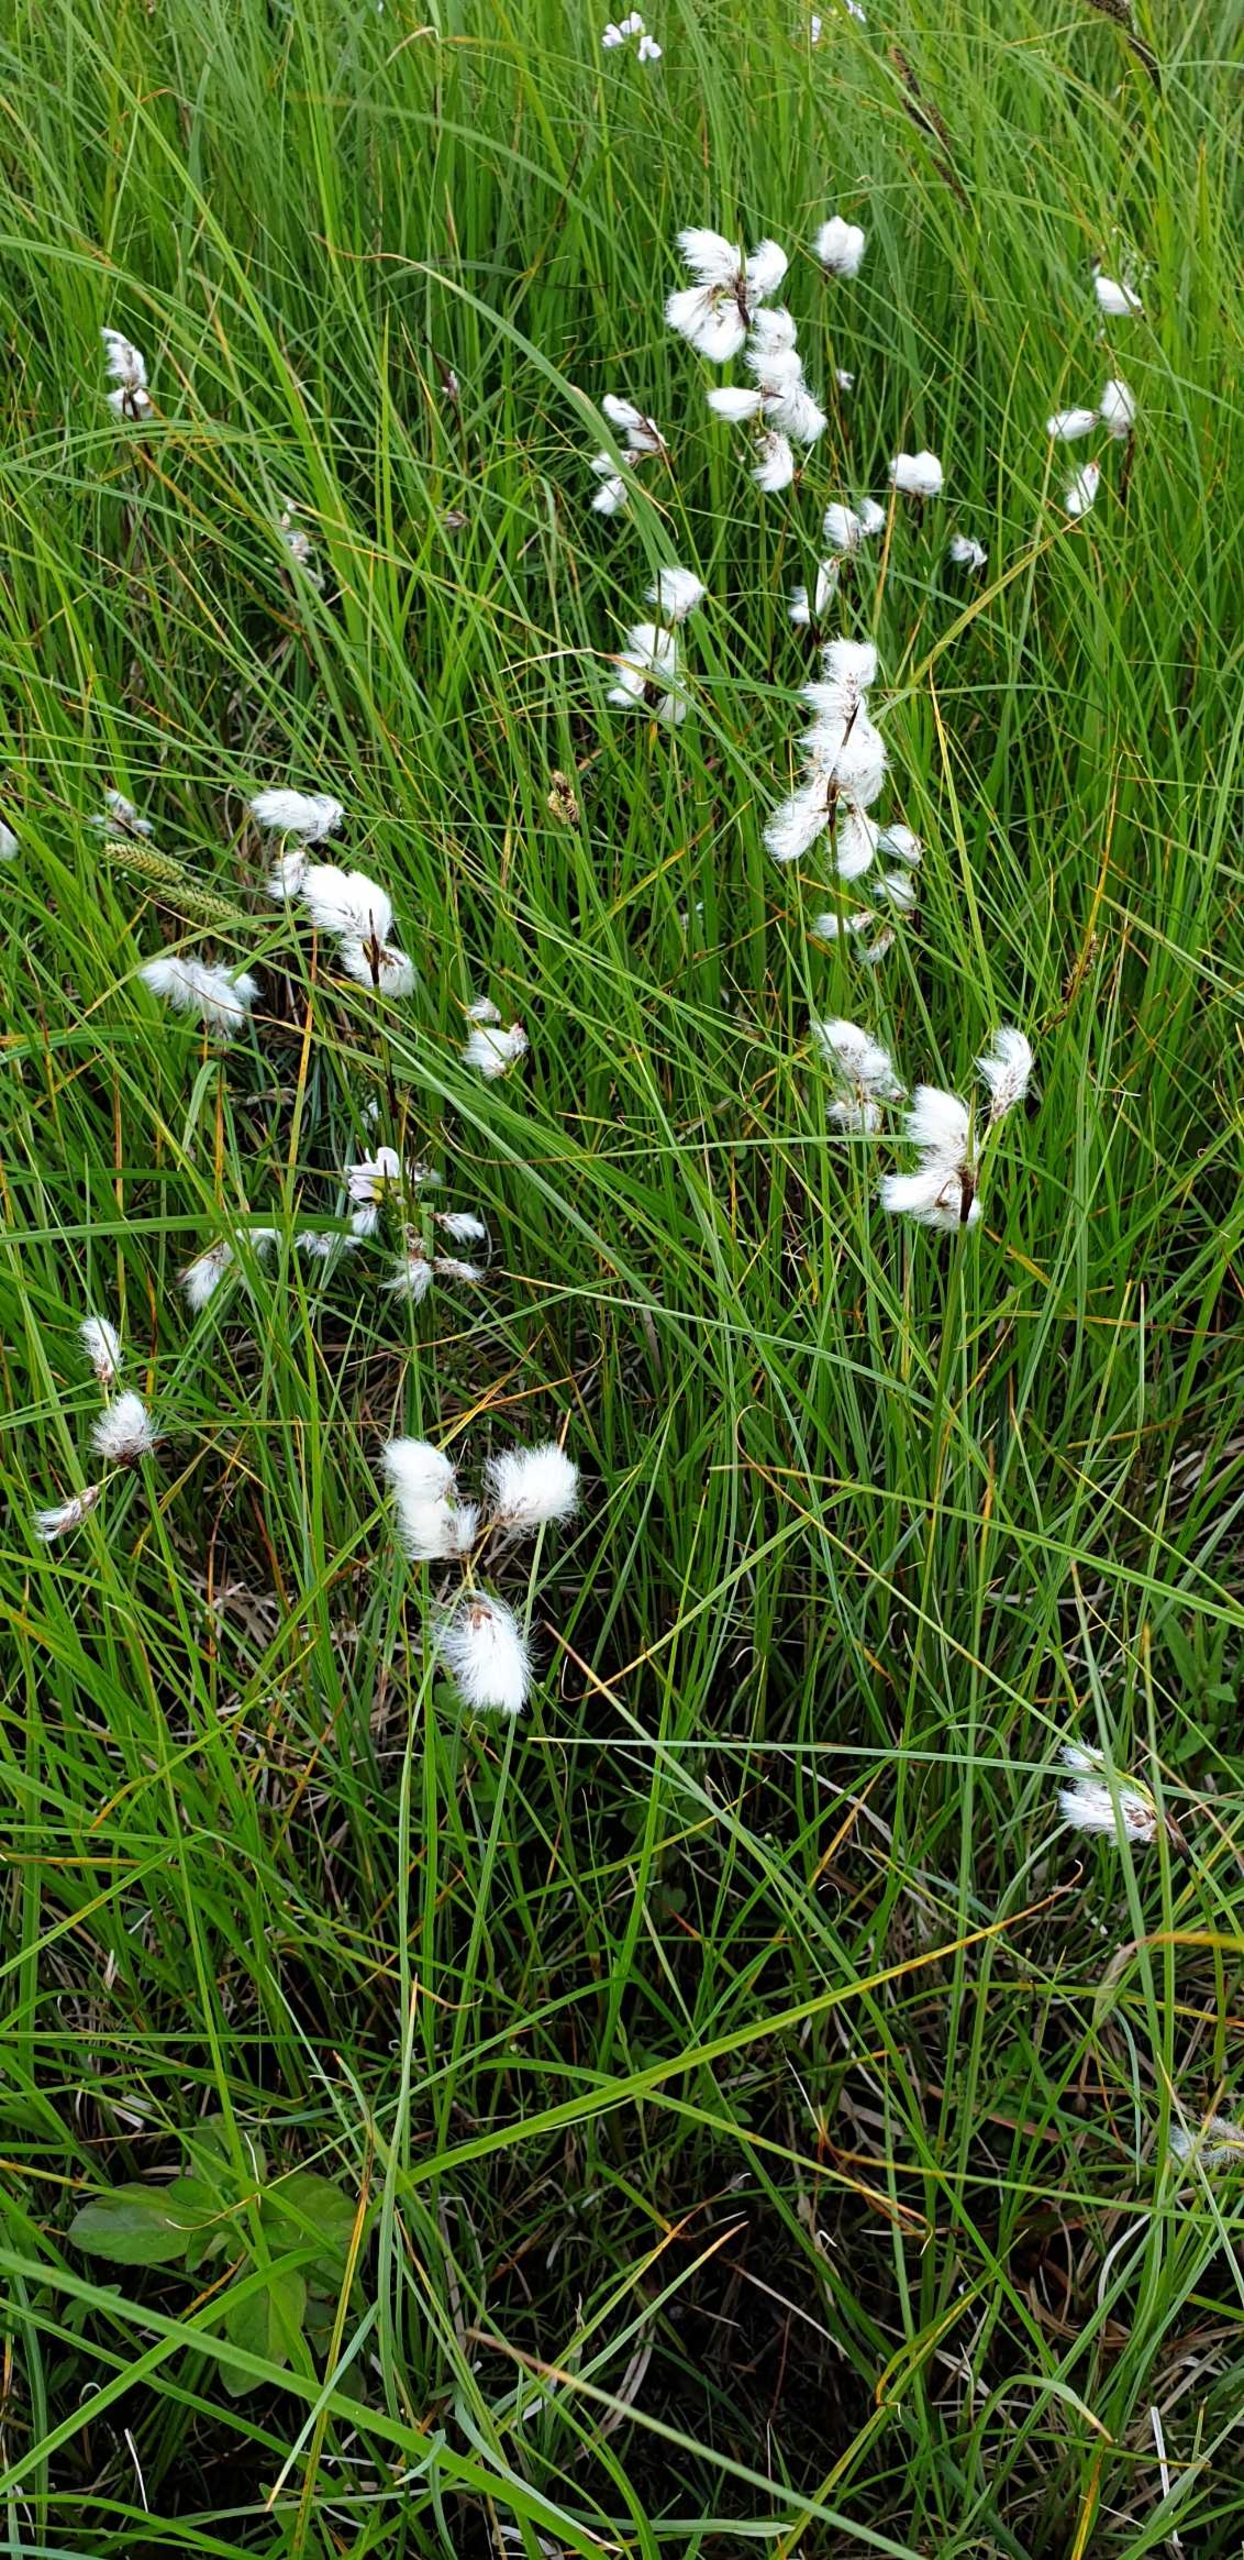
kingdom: Plantae
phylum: Tracheophyta
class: Liliopsida
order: Poales
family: Cyperaceae
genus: Eriophorum
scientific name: Eriophorum angustifolium
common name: Smalbladet kæruld
